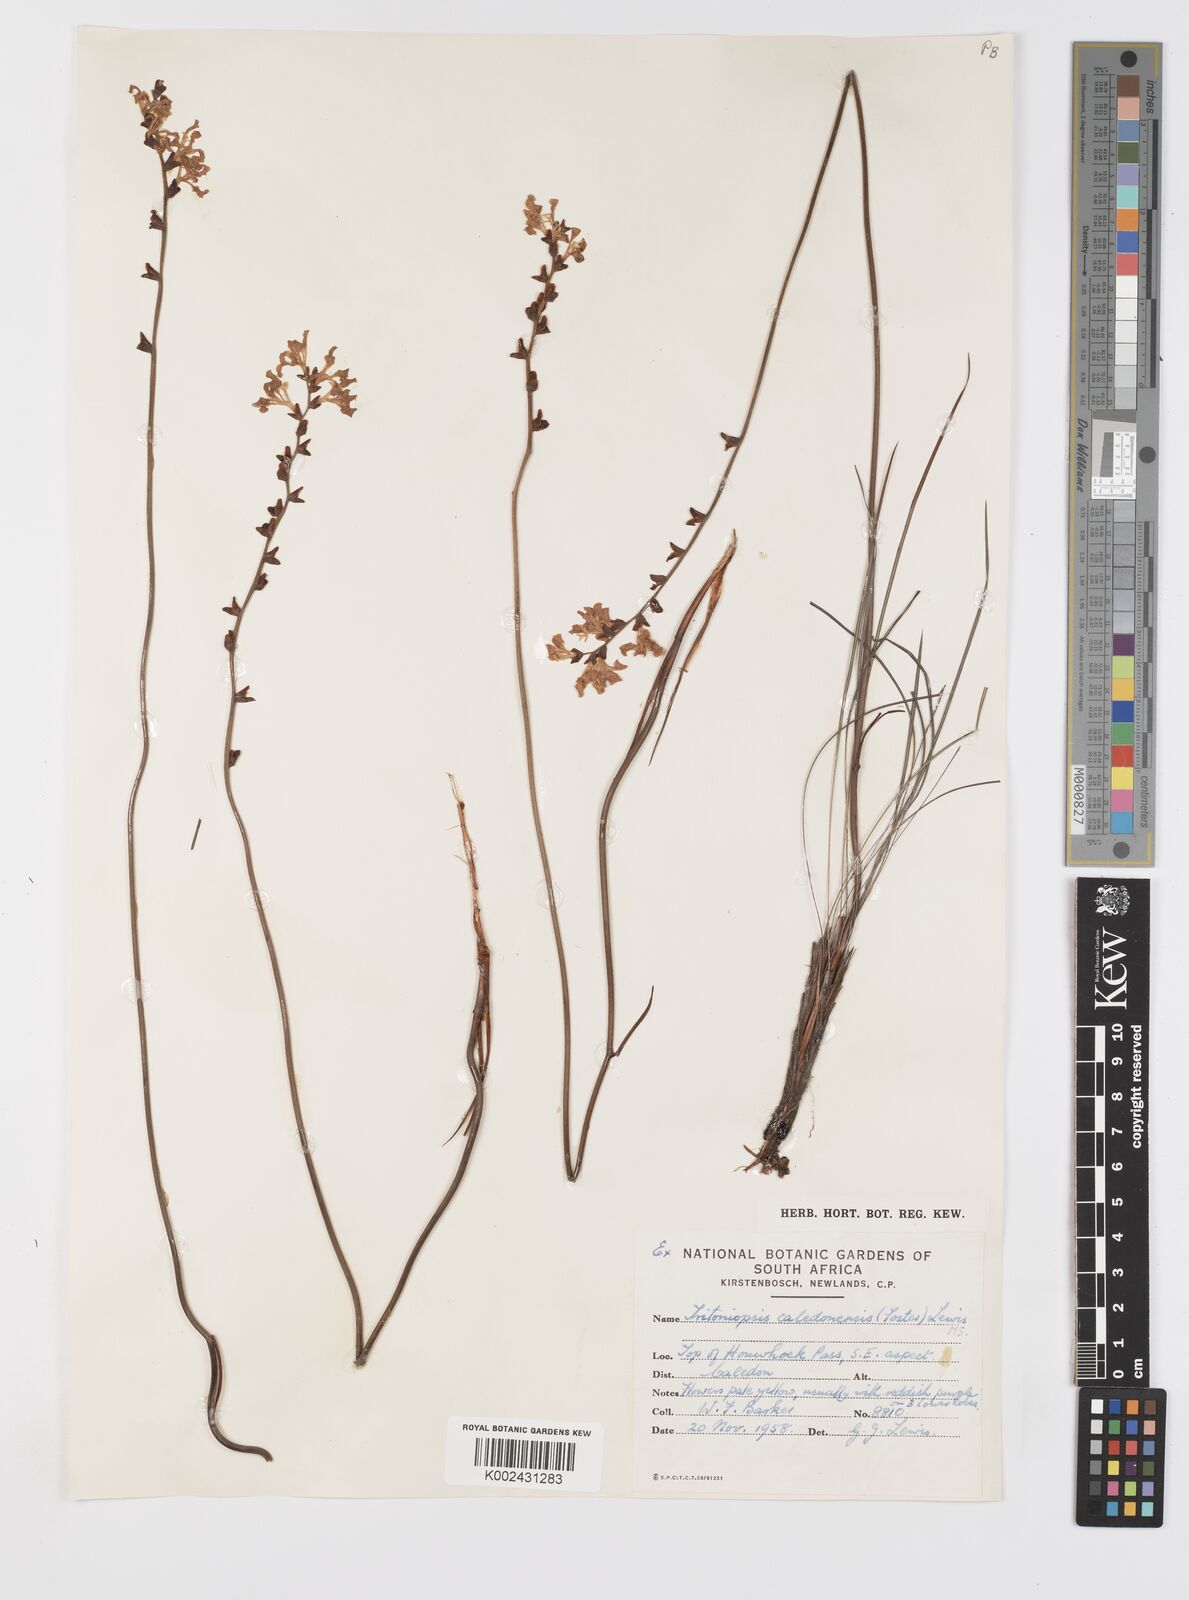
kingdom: Plantae
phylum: Tracheophyta
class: Liliopsida
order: Asparagales
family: Iridaceae
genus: Tritoniopsis
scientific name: Tritoniopsis unguicularis
